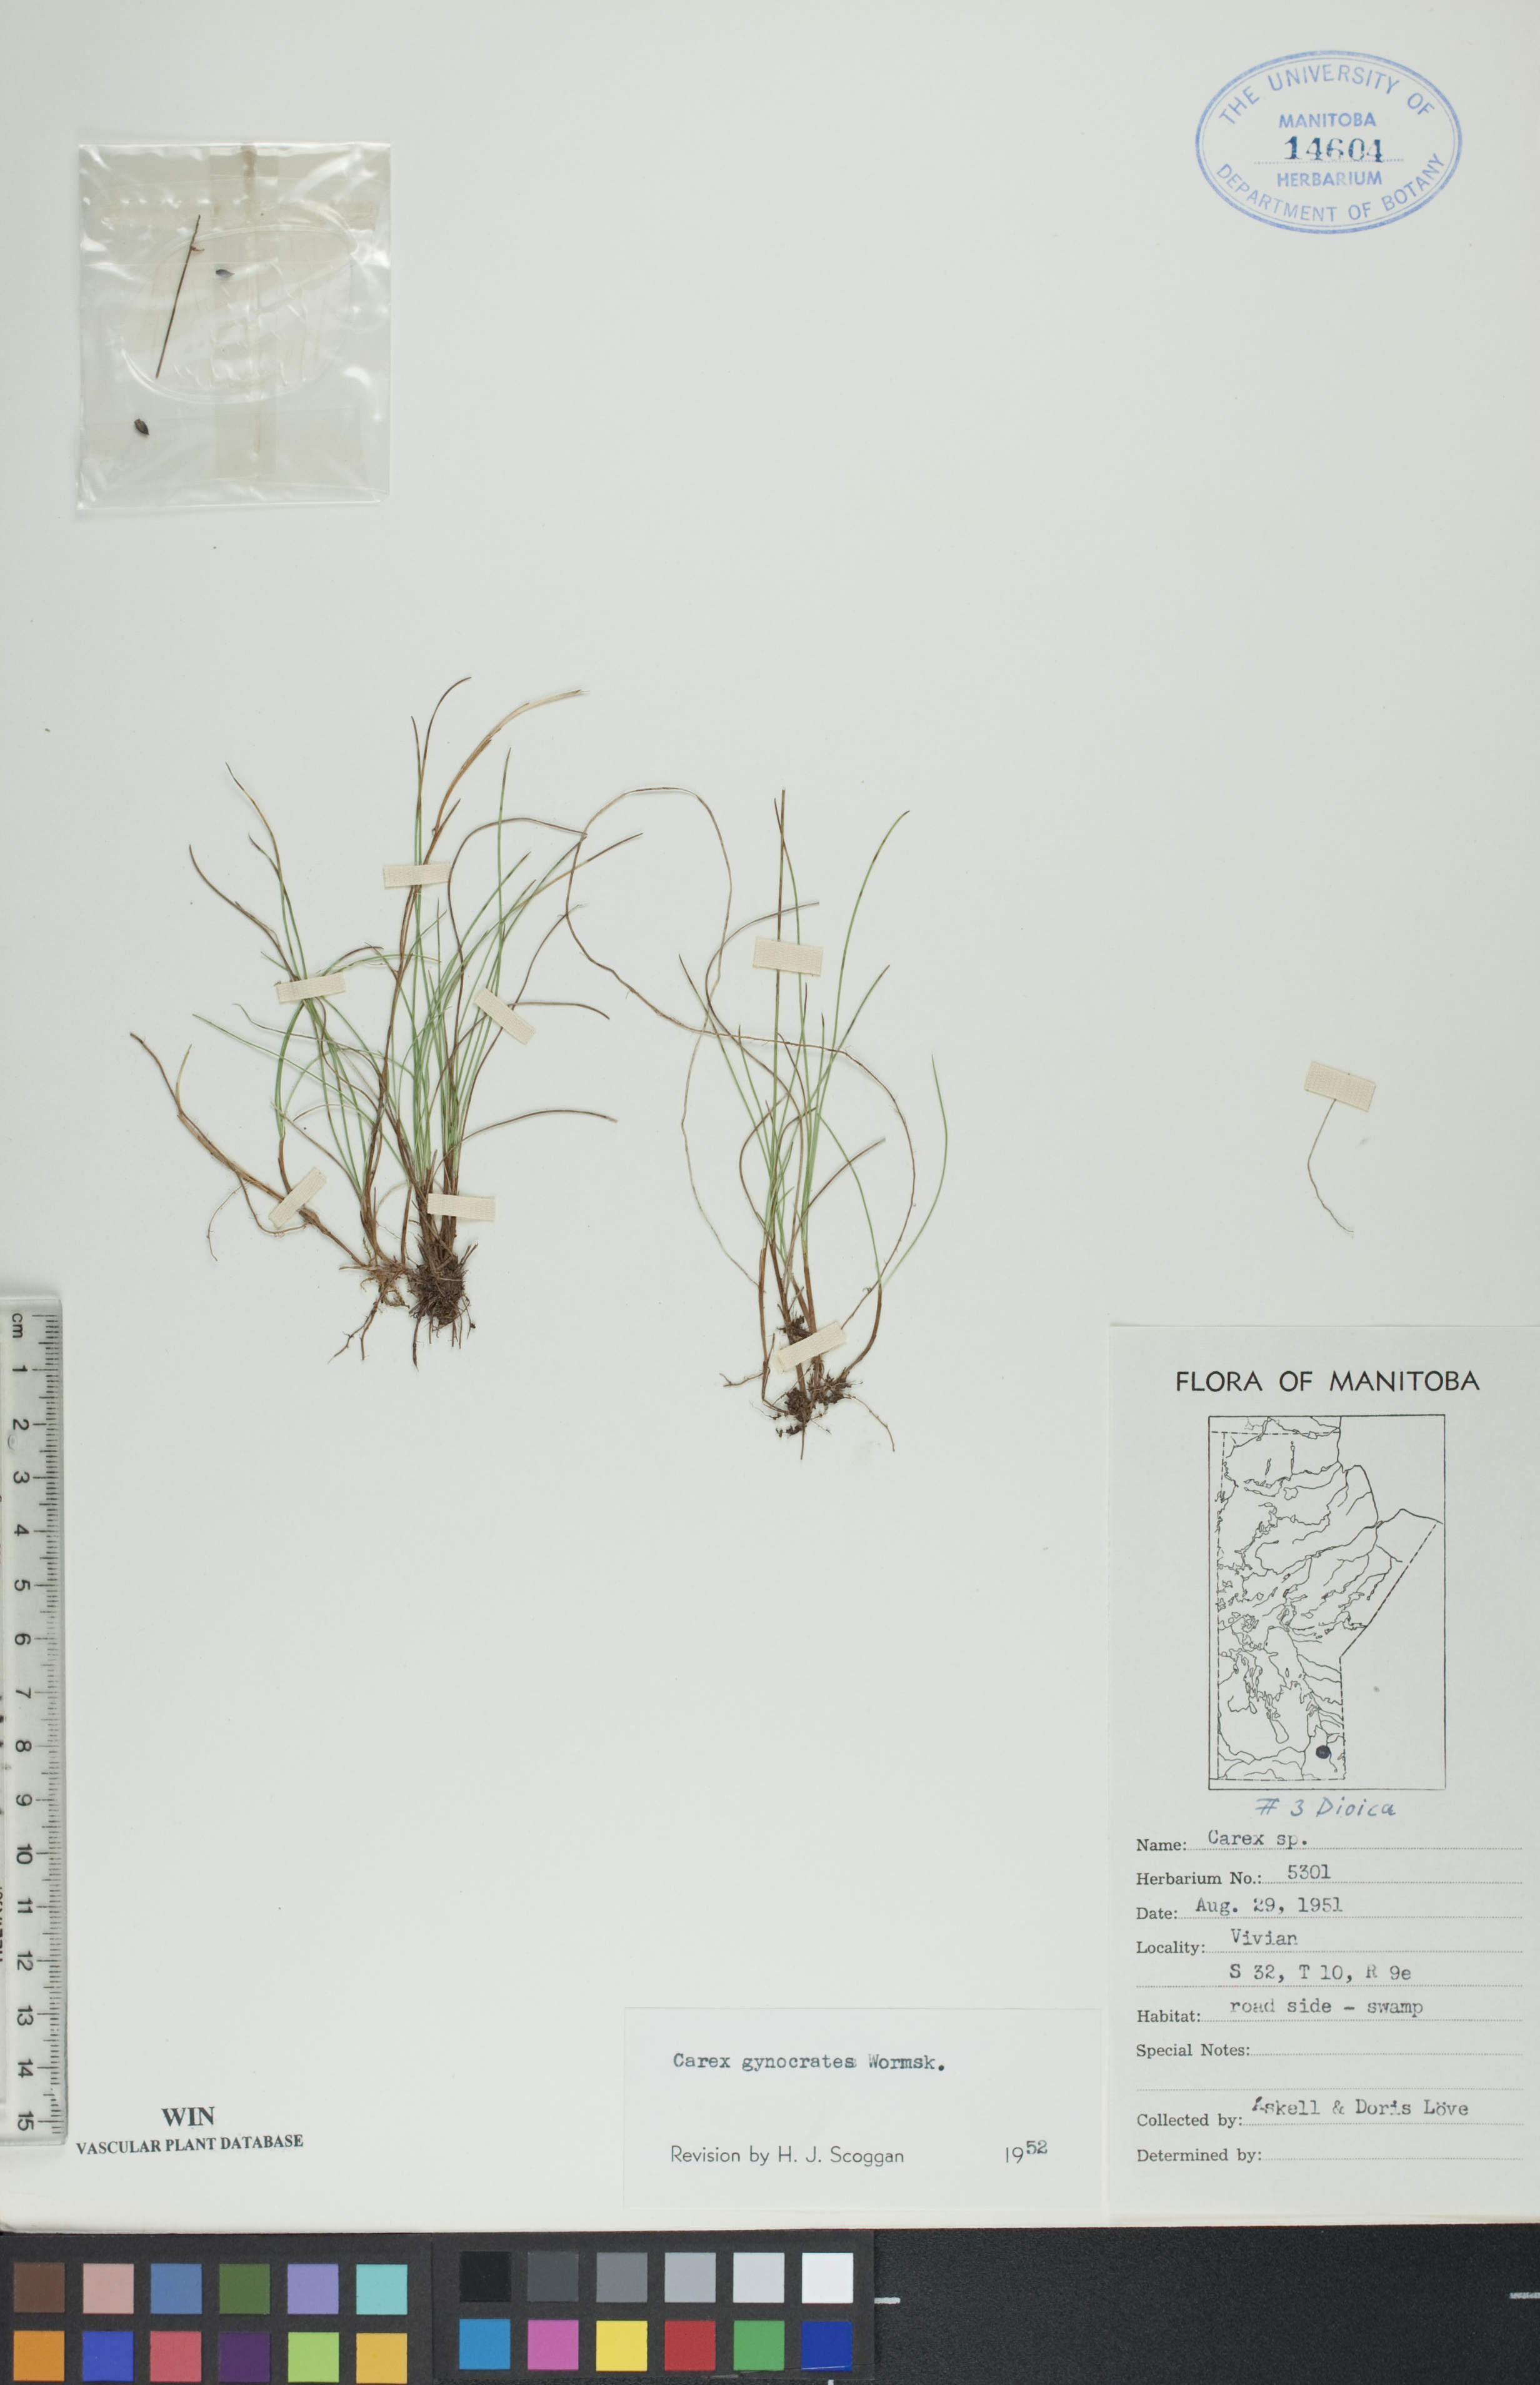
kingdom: Plantae
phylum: Tracheophyta
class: Liliopsida
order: Poales
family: Cyperaceae
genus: Carex
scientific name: Carex nardina
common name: Nard sedge
